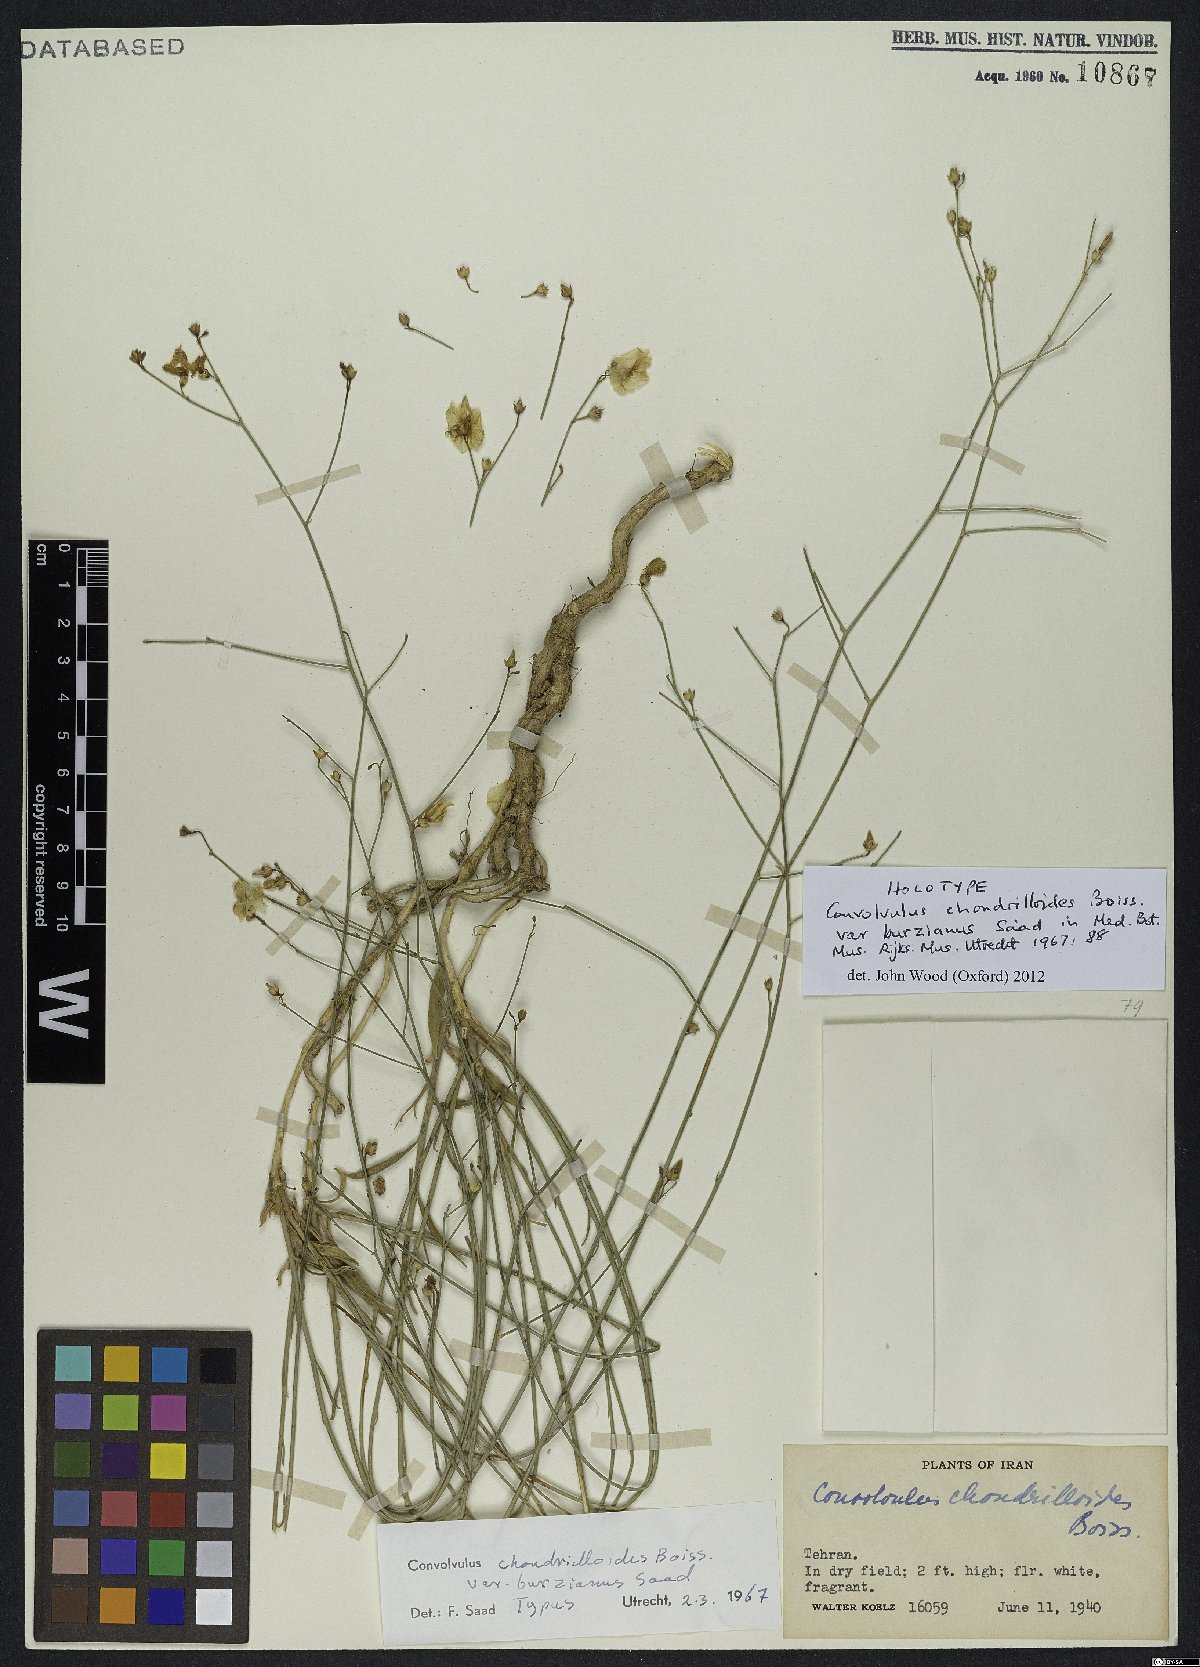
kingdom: Plantae
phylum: Tracheophyta
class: Magnoliopsida
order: Solanales
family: Convolvulaceae
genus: Convolvulus
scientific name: Convolvulus chondrilloides
